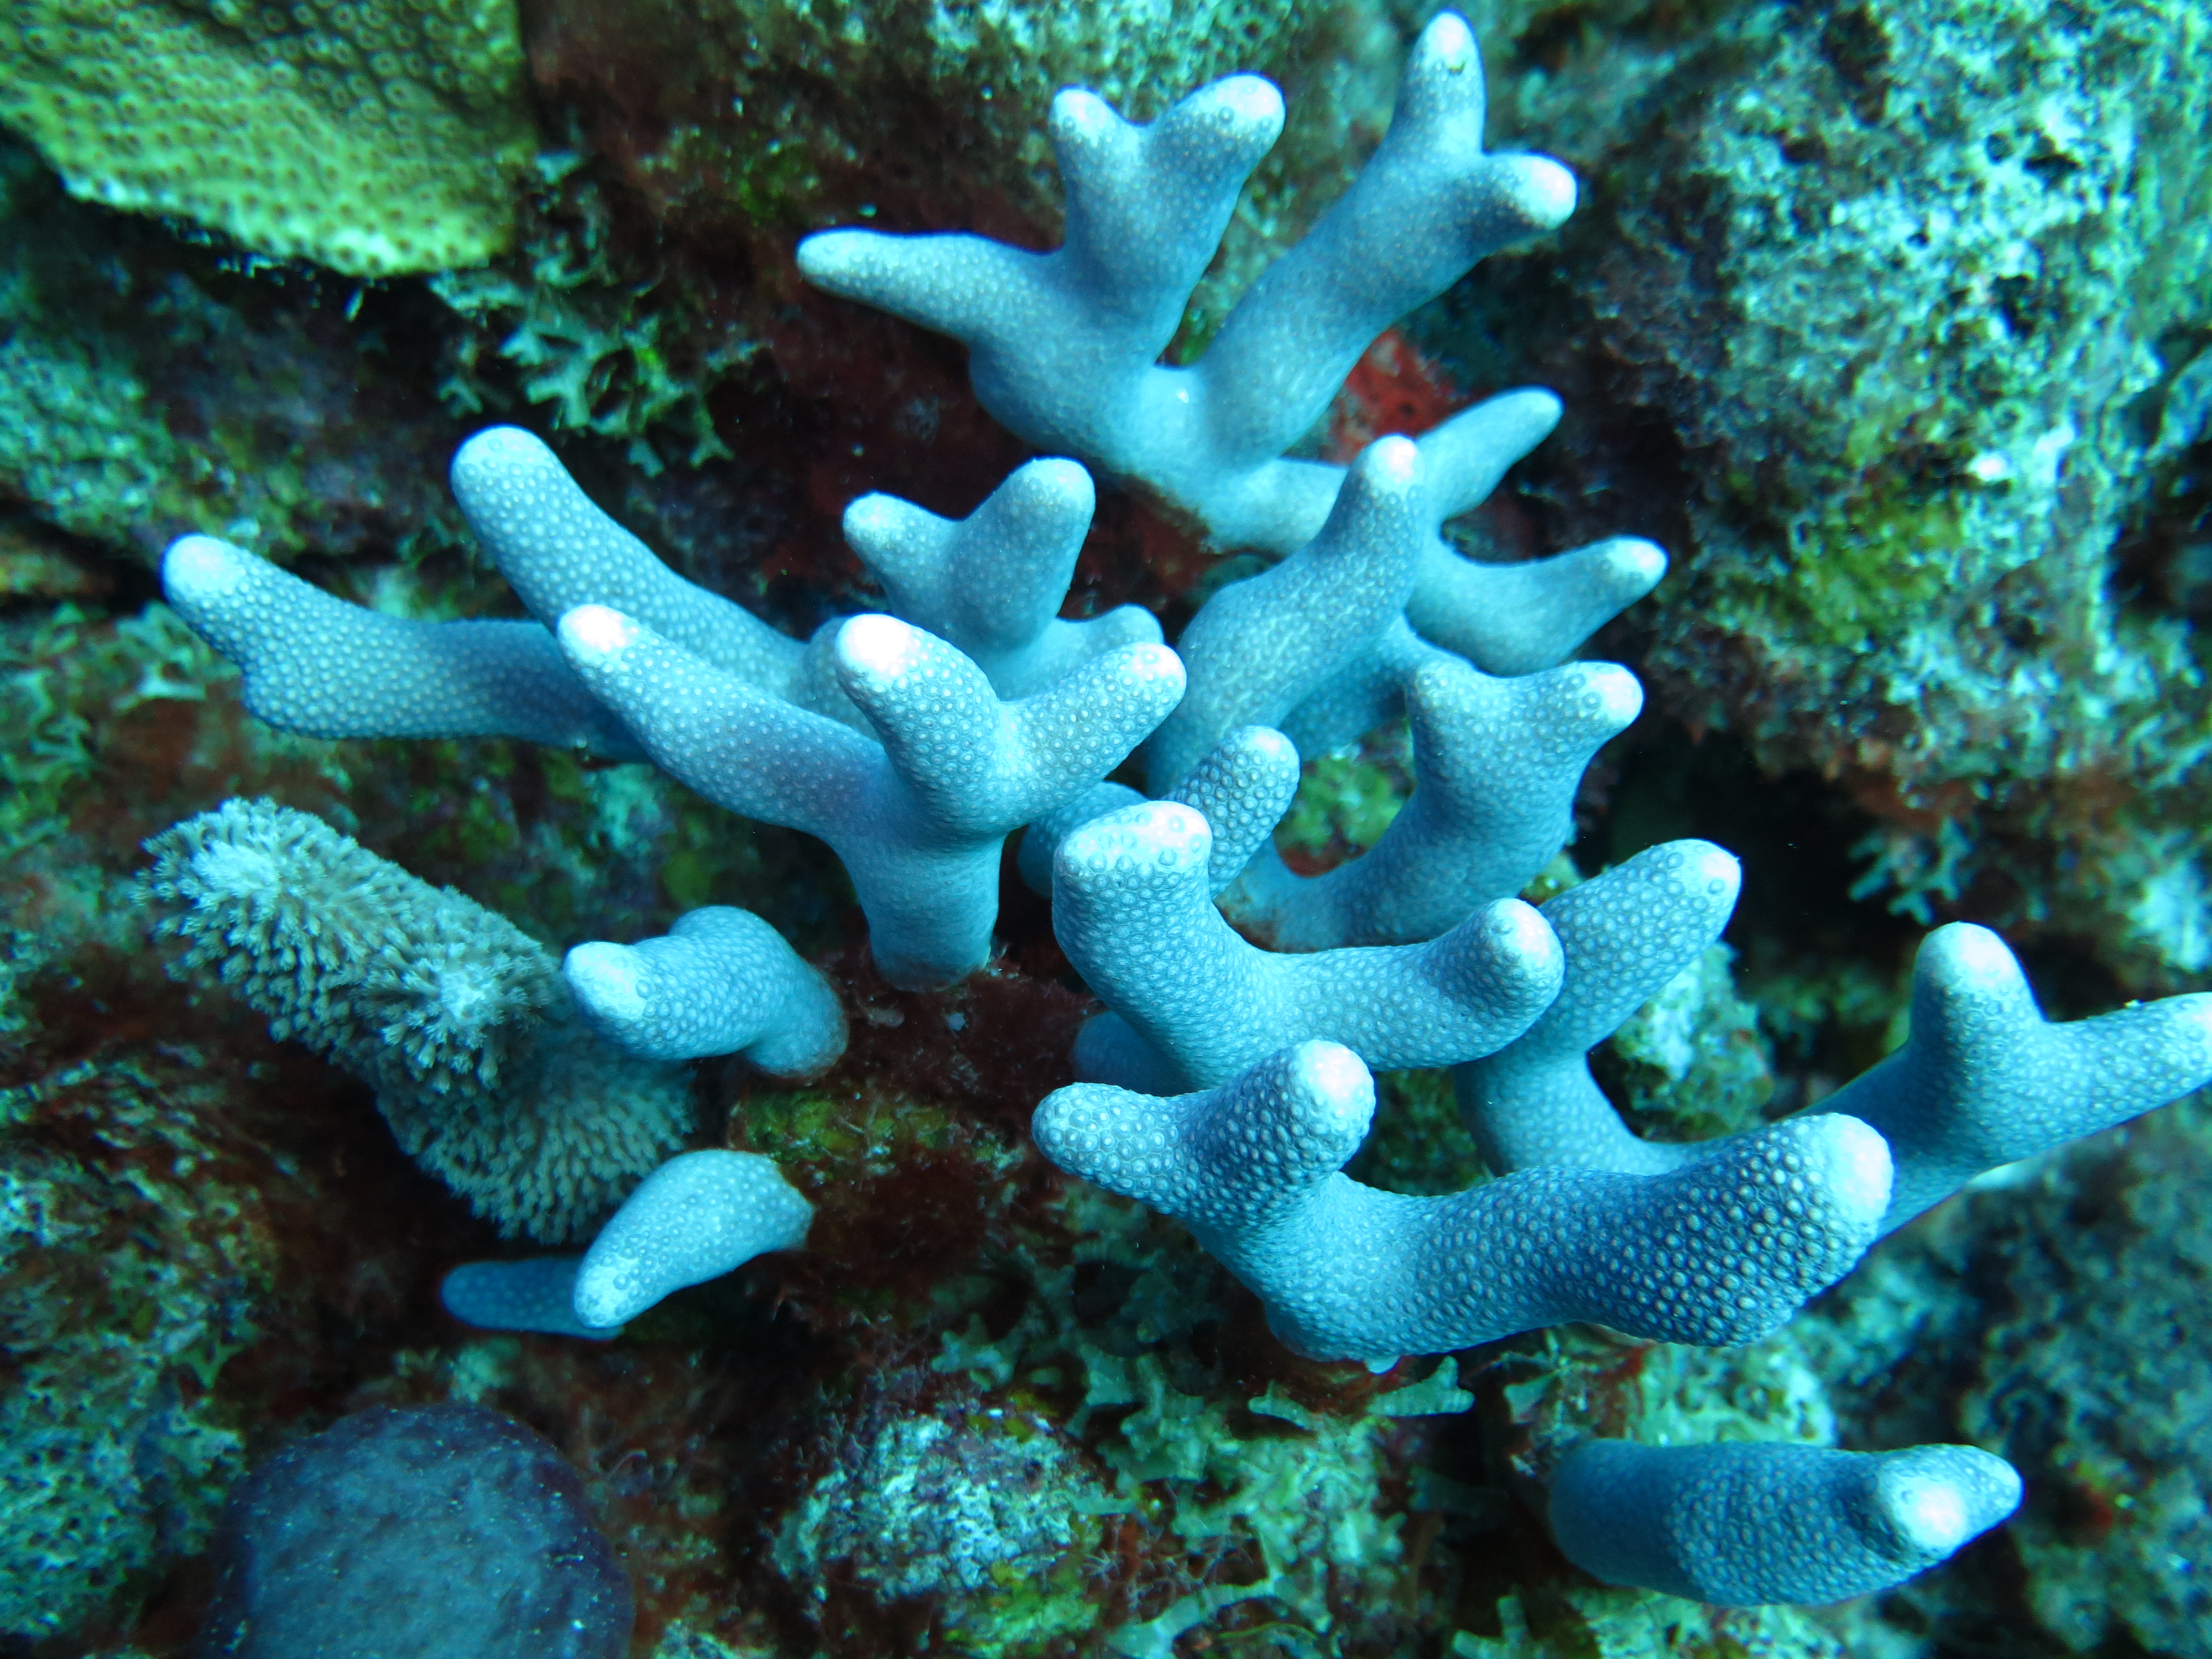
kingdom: Animalia
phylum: Cnidaria
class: Anthozoa
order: Scleractinia
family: Poritidae
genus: Porites
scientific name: Porites porites
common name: Finger coral
